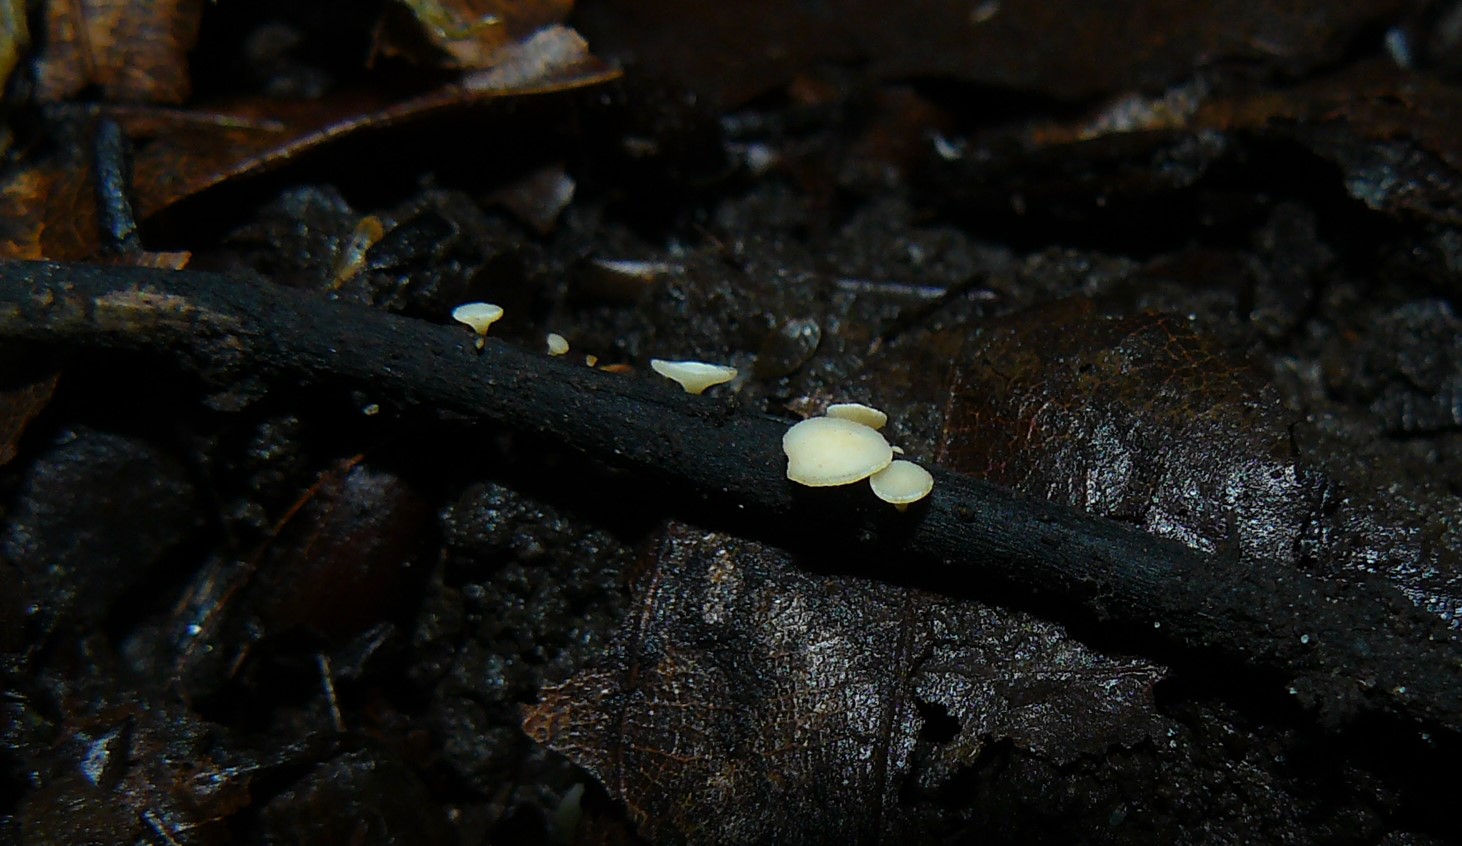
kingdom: Fungi
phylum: Ascomycota
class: Leotiomycetes
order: Helotiales
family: Helotiaceae
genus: Hymenoscyphus
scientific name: Hymenoscyphus fraxineus
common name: asketoptørre-stilkskive
